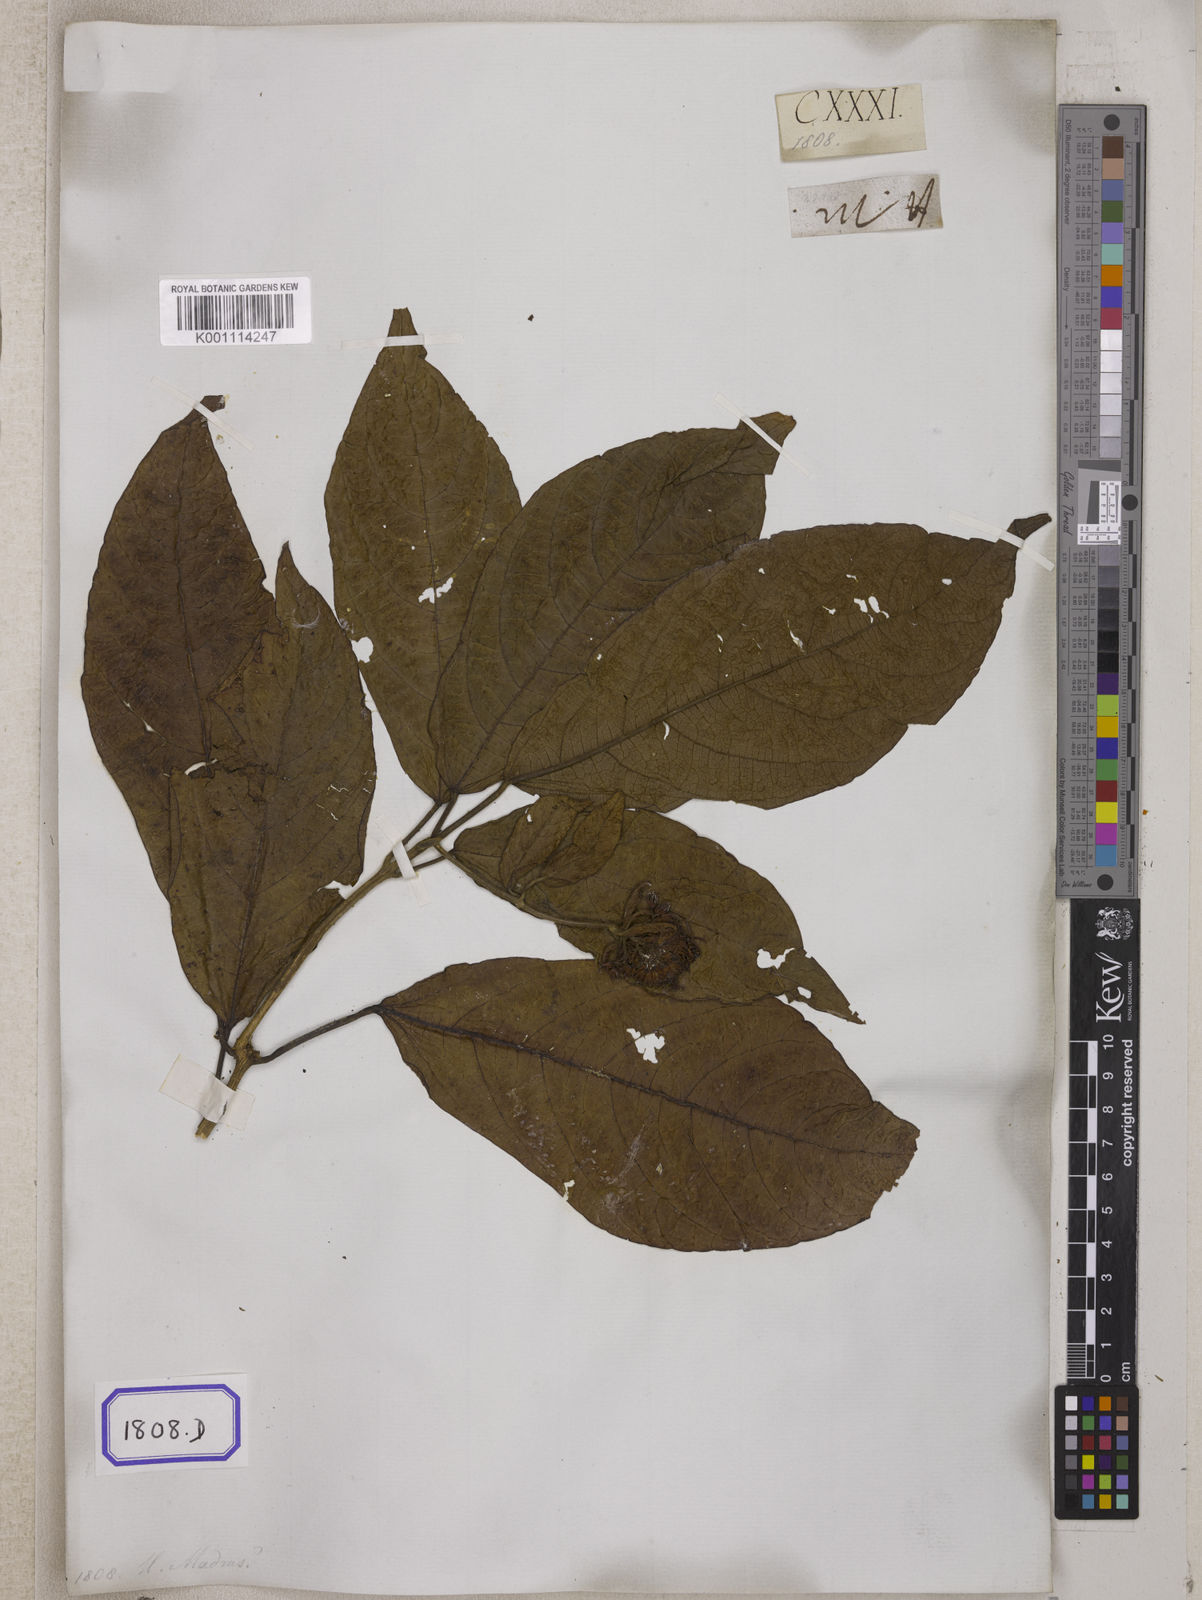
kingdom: Plantae
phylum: Tracheophyta
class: Magnoliopsida
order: Lamiales
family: Lamiaceae
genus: Clerodendrum
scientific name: Clerodendrum deflexum
